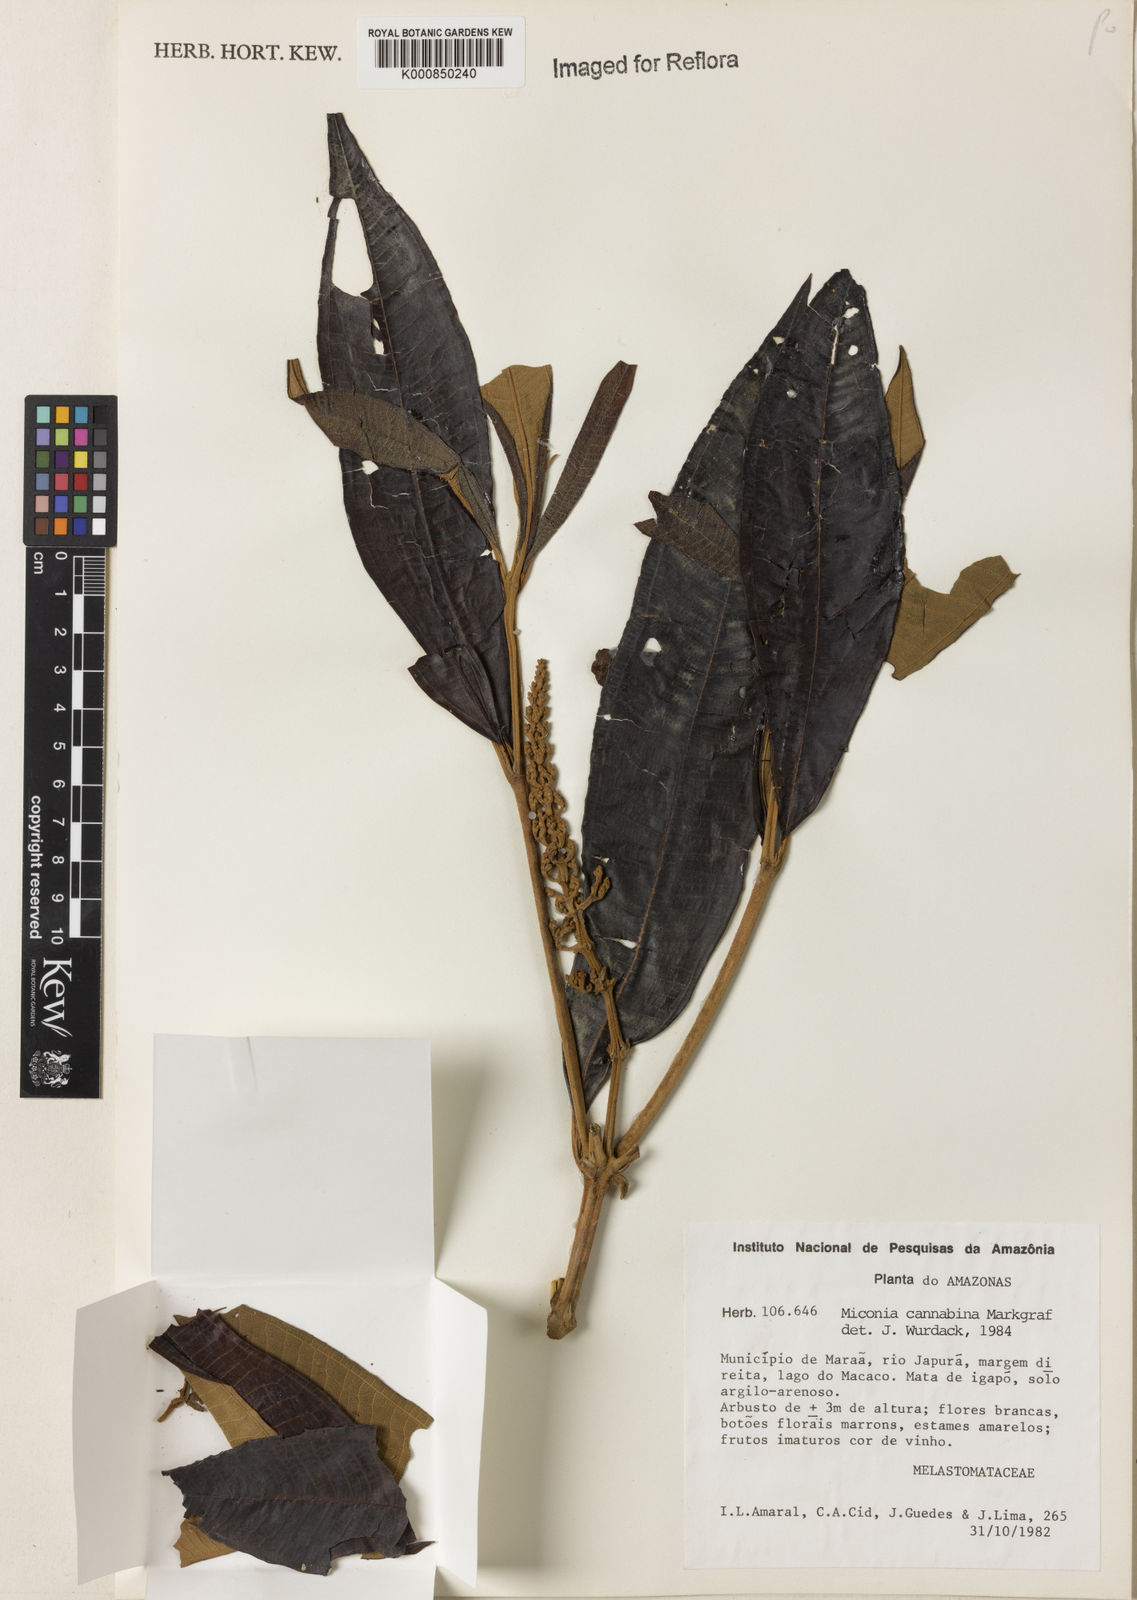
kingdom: Plantae
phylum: Tracheophyta
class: Magnoliopsida
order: Myrtales
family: Melastomataceae
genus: Miconia
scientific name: Miconia cannabina
